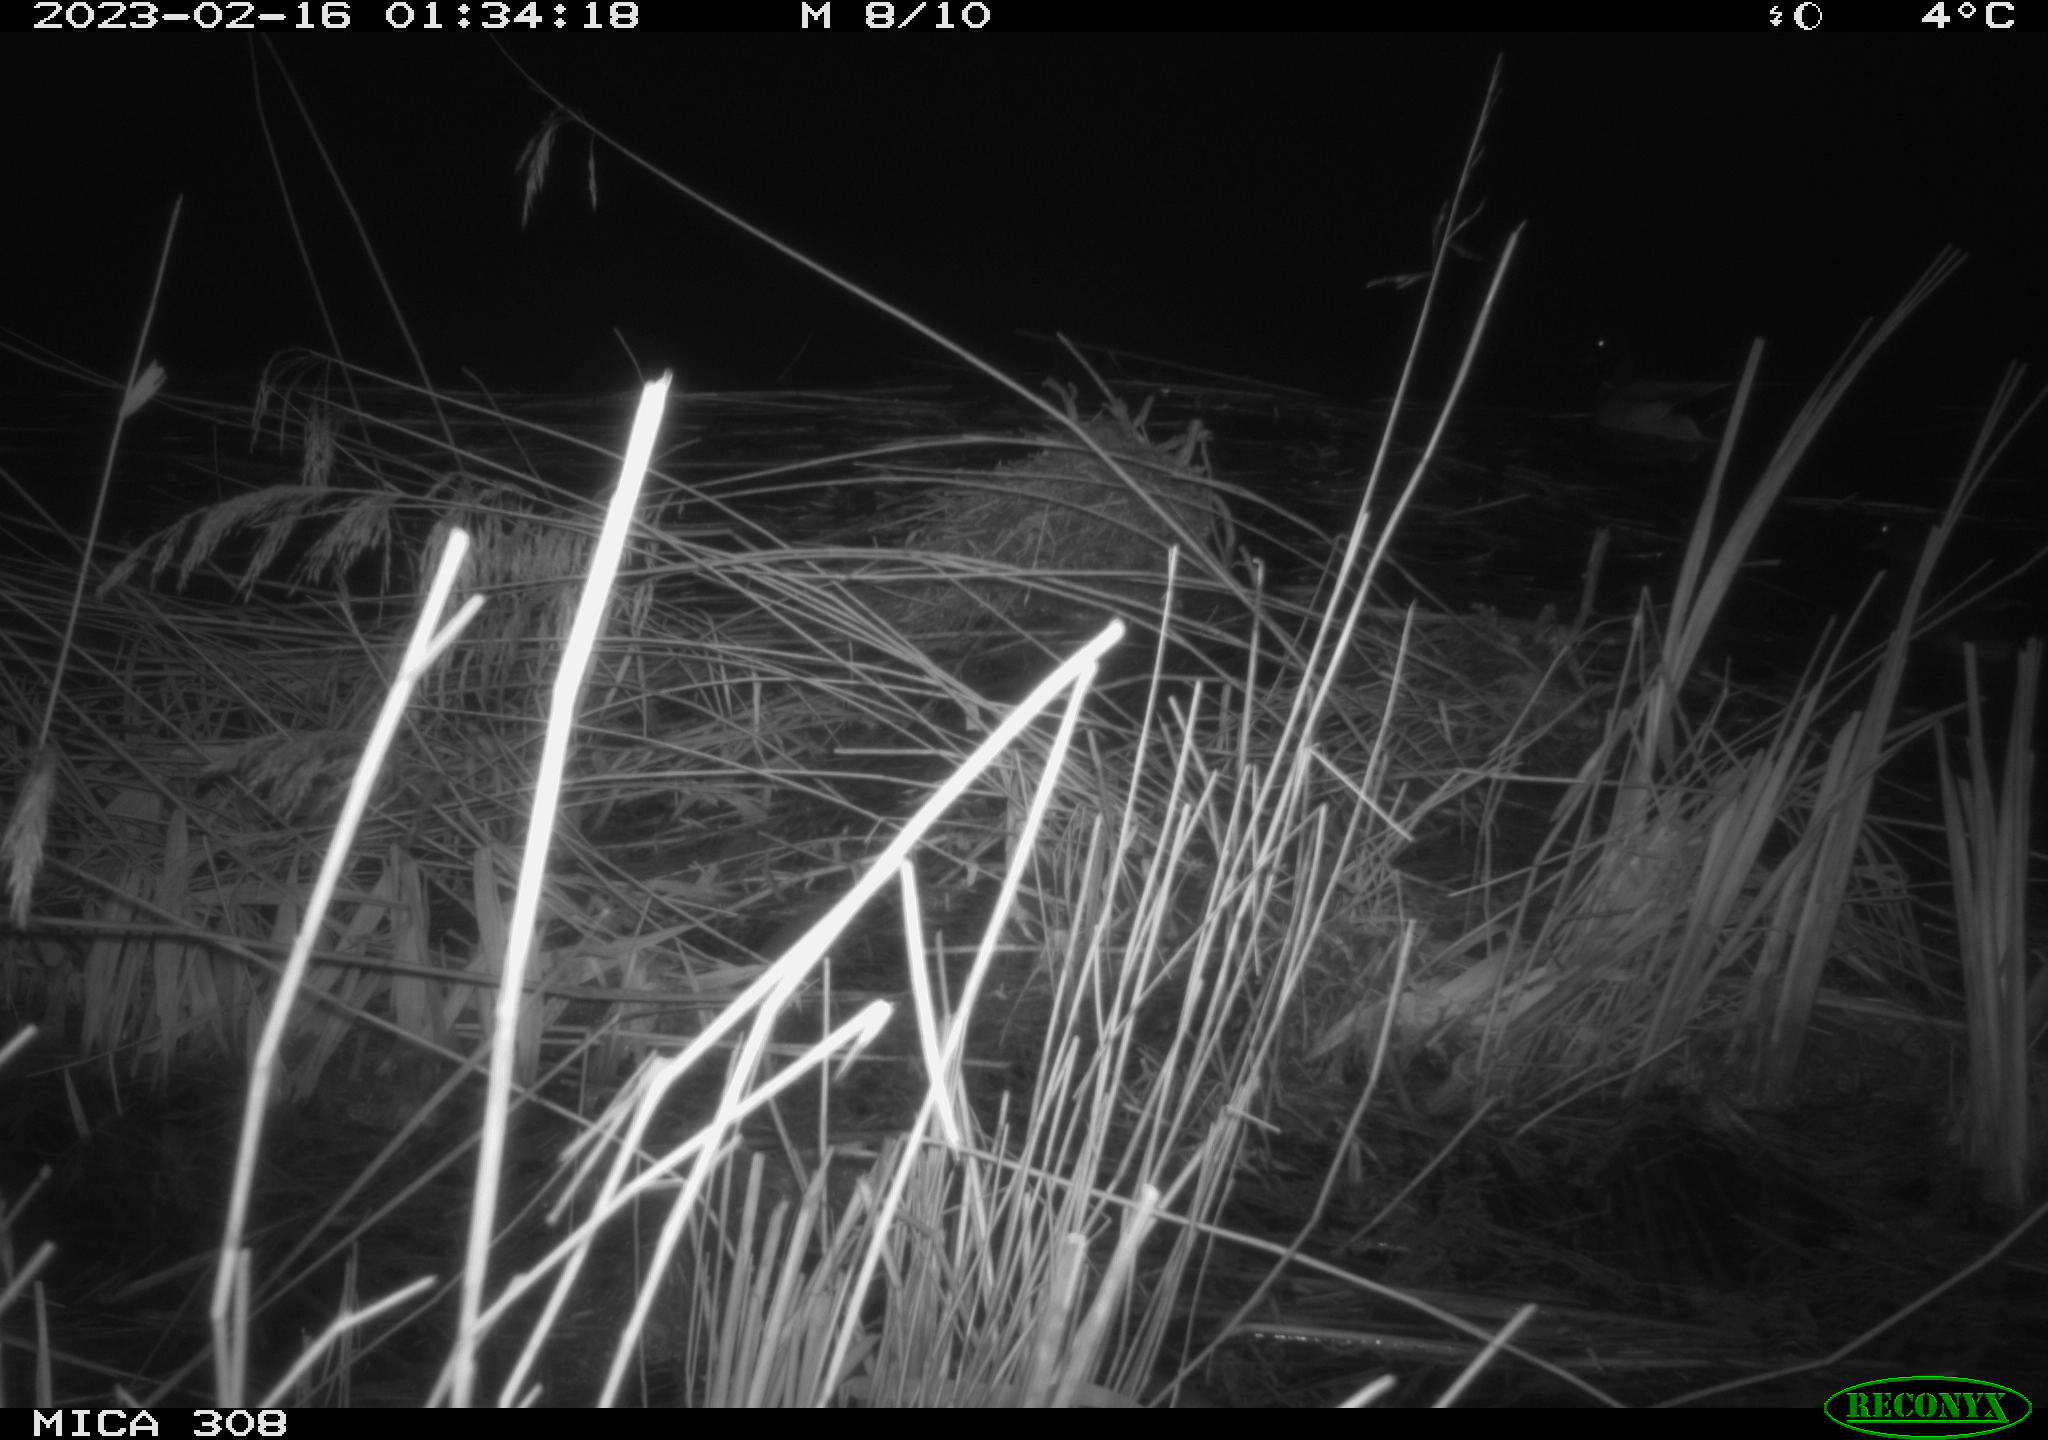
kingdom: Animalia
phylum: Chordata
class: Aves
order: Anseriformes
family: Anatidae
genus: Anas
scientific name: Anas
